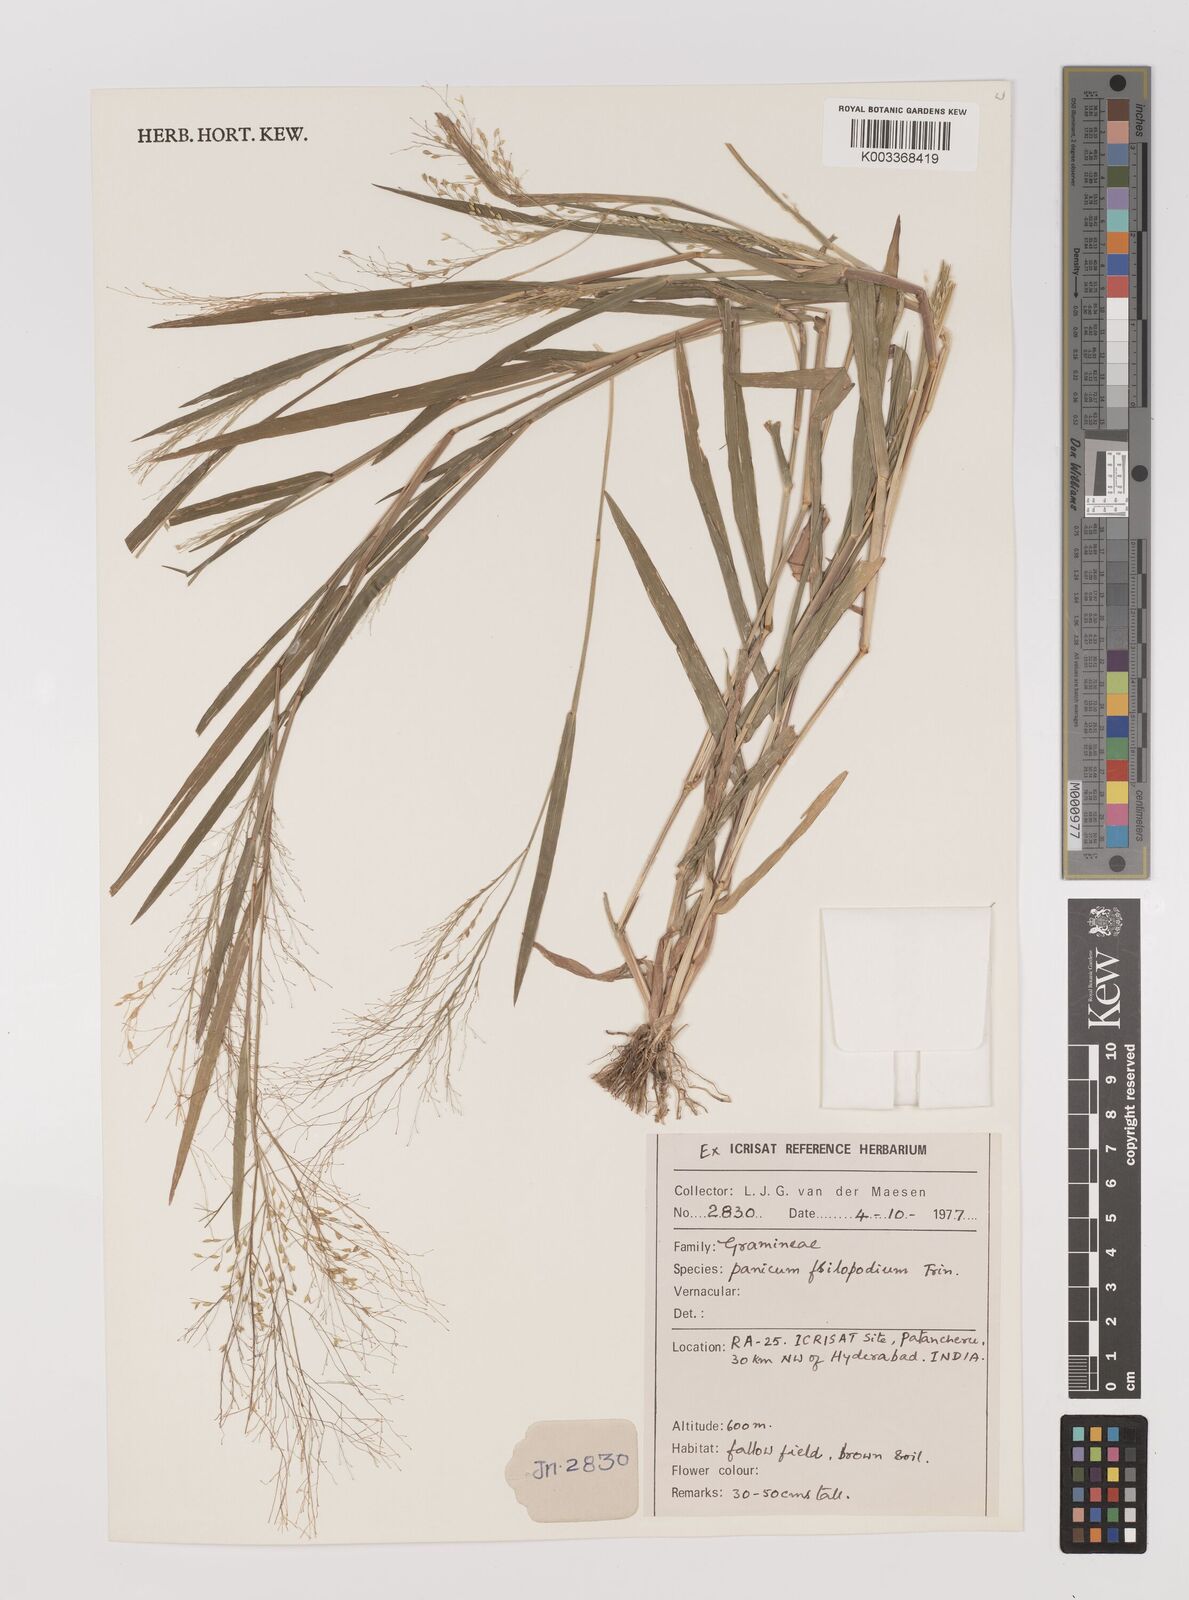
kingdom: Plantae
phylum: Tracheophyta
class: Liliopsida
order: Poales
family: Poaceae
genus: Panicum
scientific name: Panicum sumatrense
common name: Little millet
